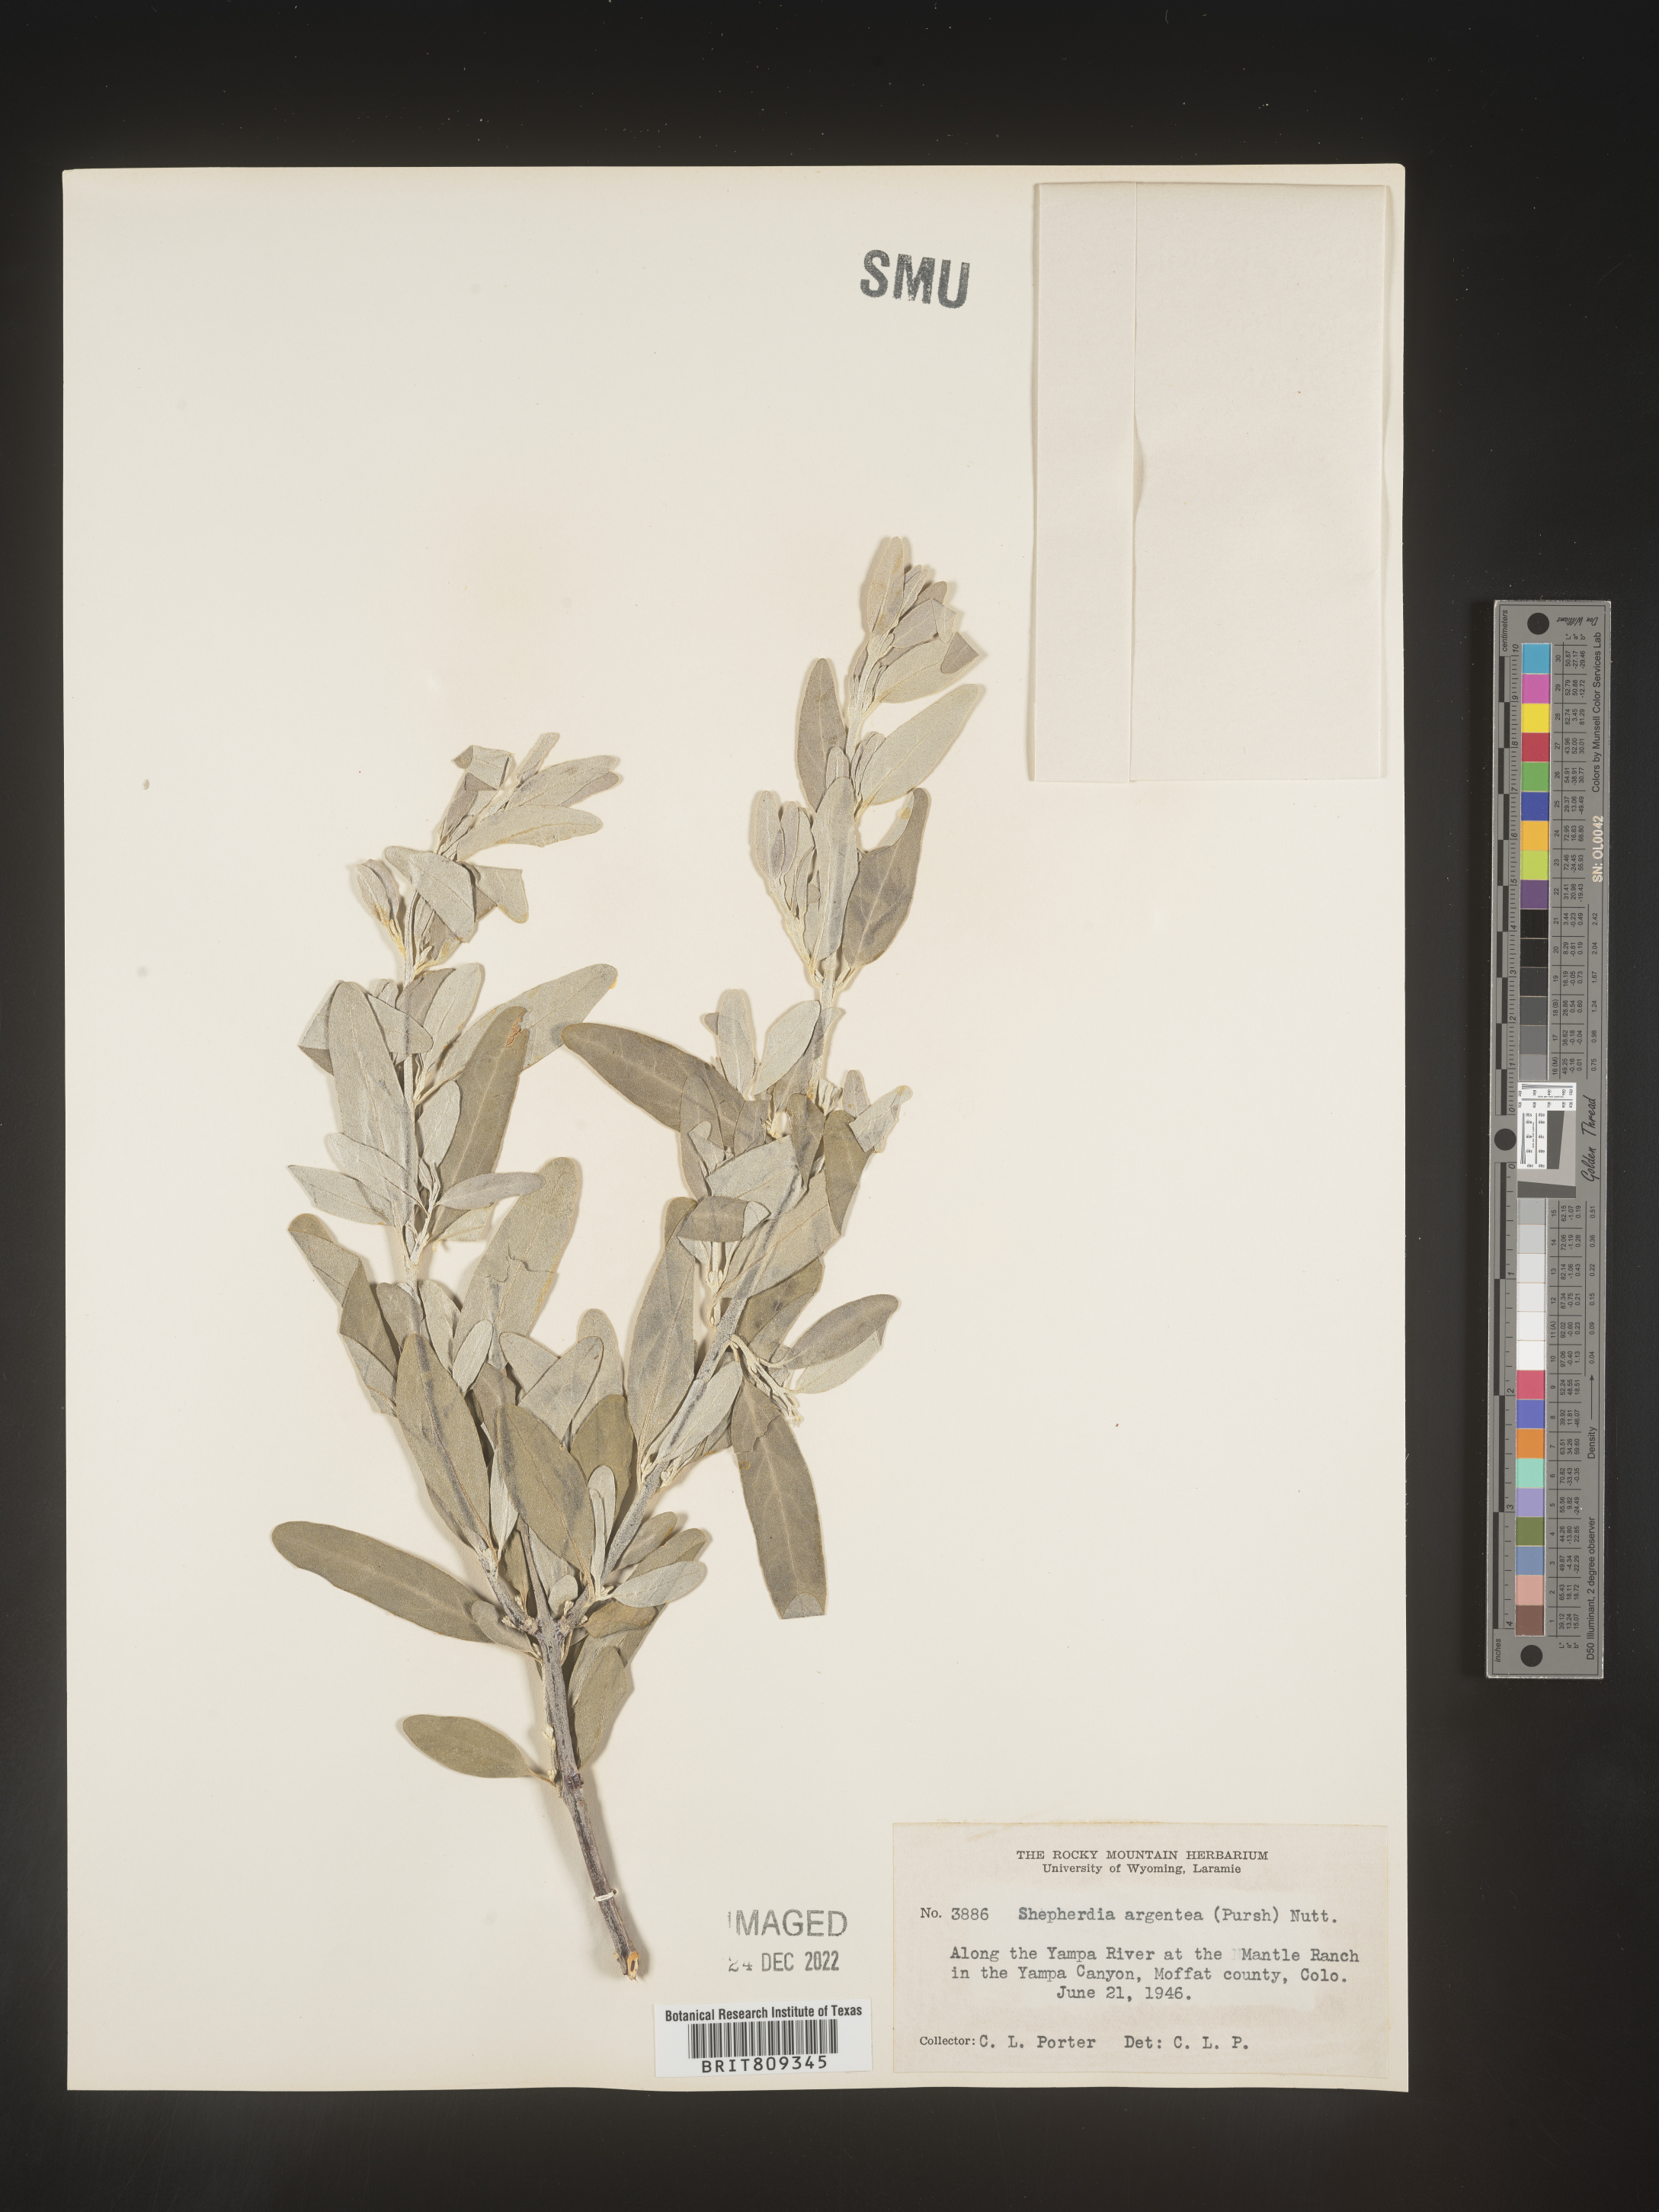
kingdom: Plantae
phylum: Tracheophyta
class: Magnoliopsida
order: Rosales
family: Elaeagnaceae
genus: Shepherdia
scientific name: Shepherdia argentea
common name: Silver buffaloberry
